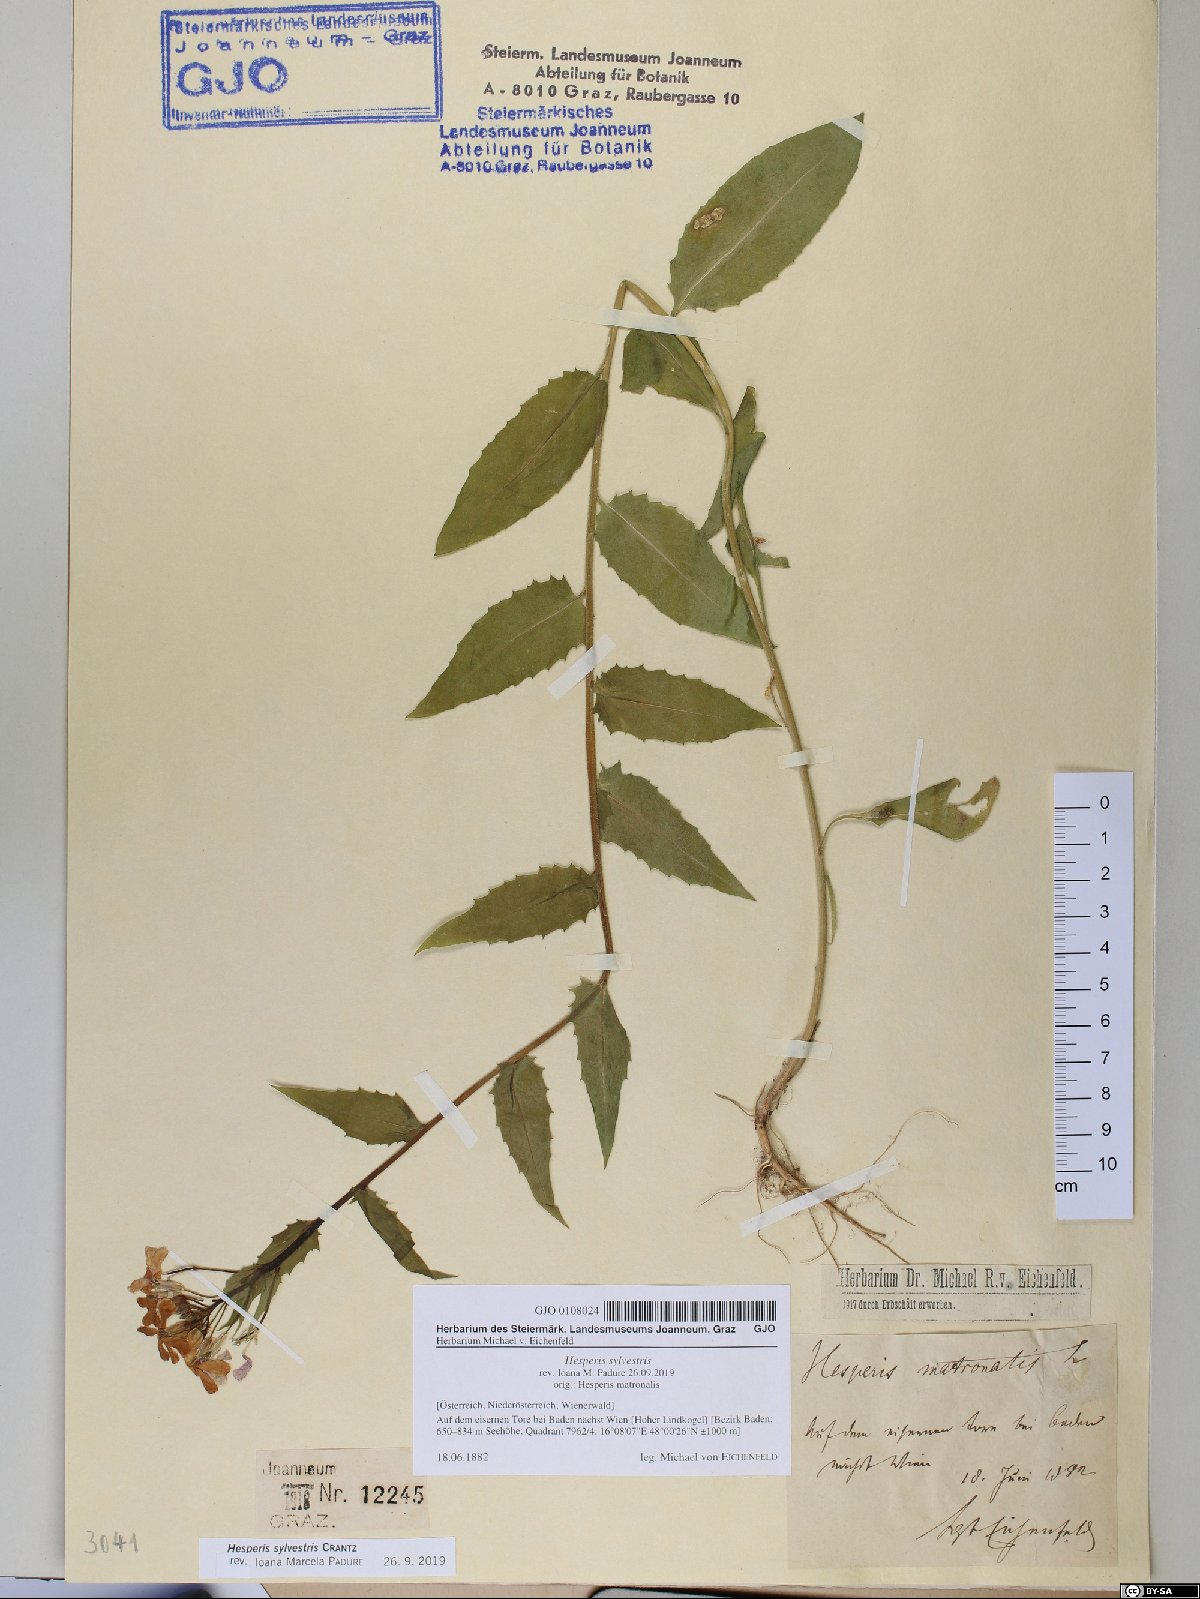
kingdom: Plantae
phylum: Tracheophyta
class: Magnoliopsida
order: Brassicales
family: Brassicaceae
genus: Hesperis
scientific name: Hesperis sylvestris
